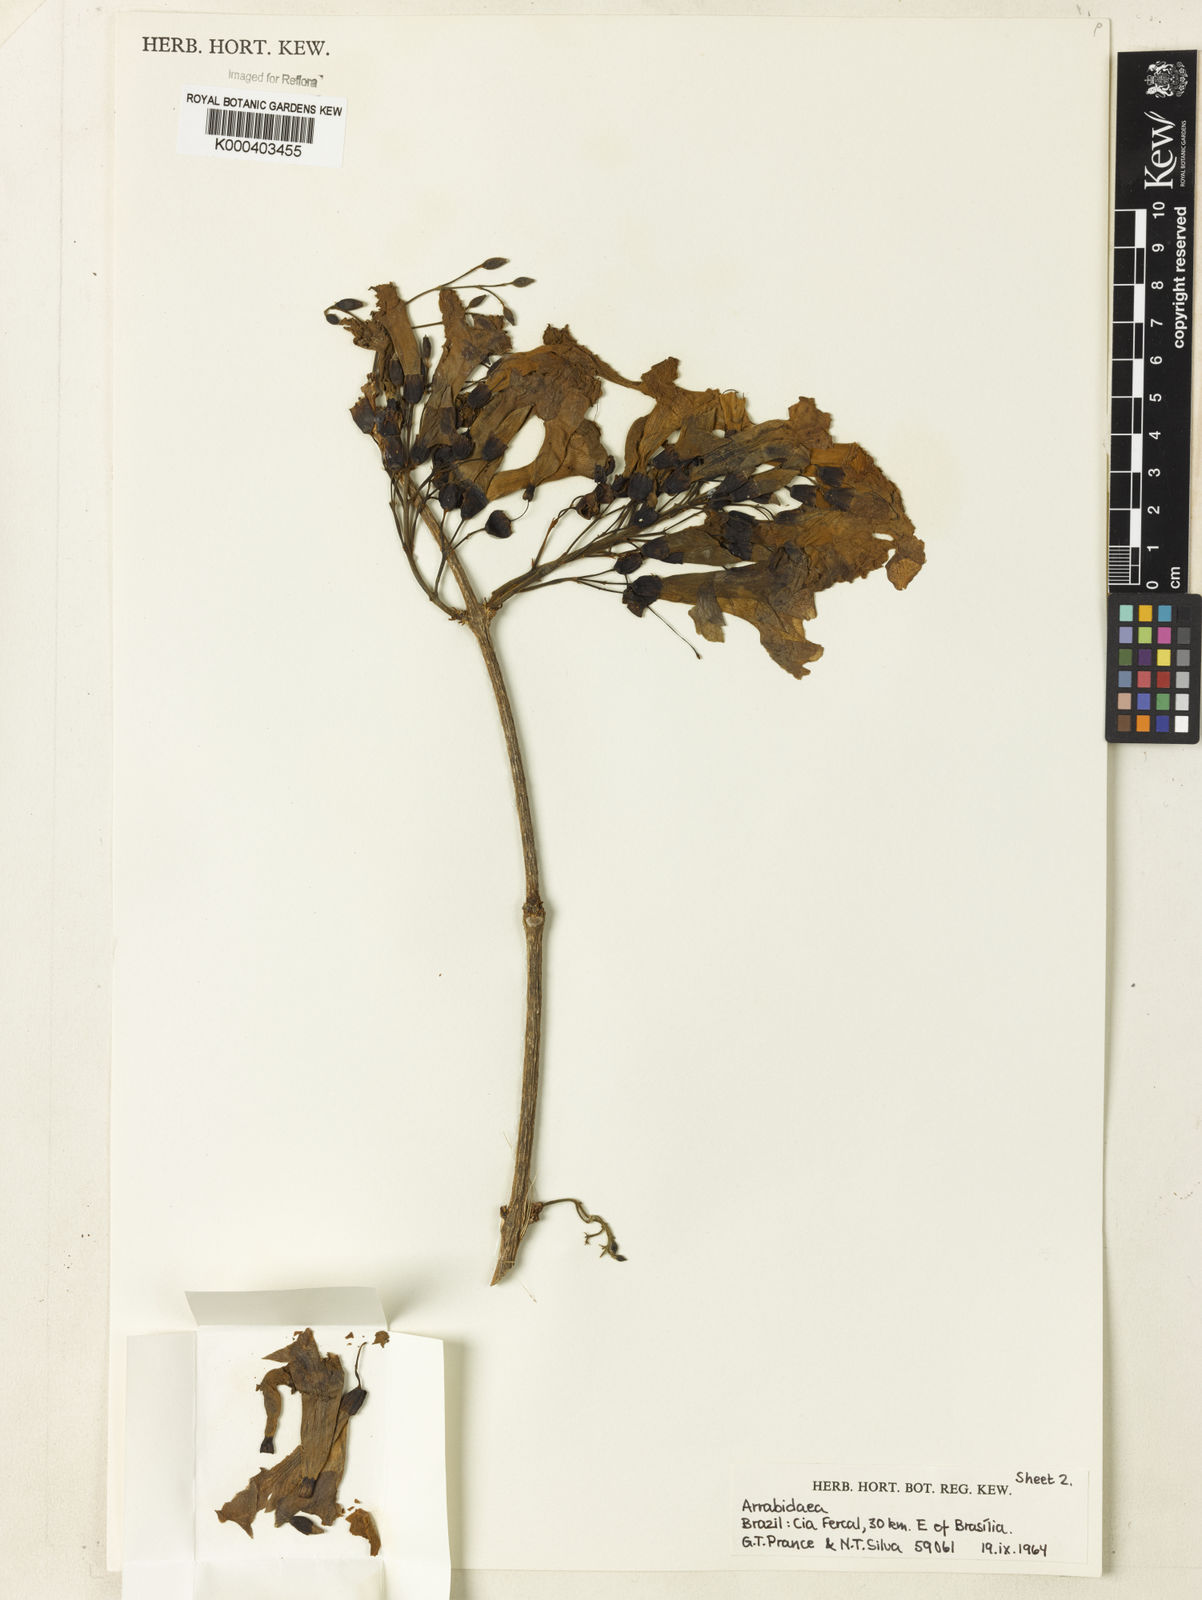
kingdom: Plantae
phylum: Tracheophyta
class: Magnoliopsida
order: Rosales
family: Rhamnaceae
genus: Arrabidaea
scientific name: Arrabidaea
